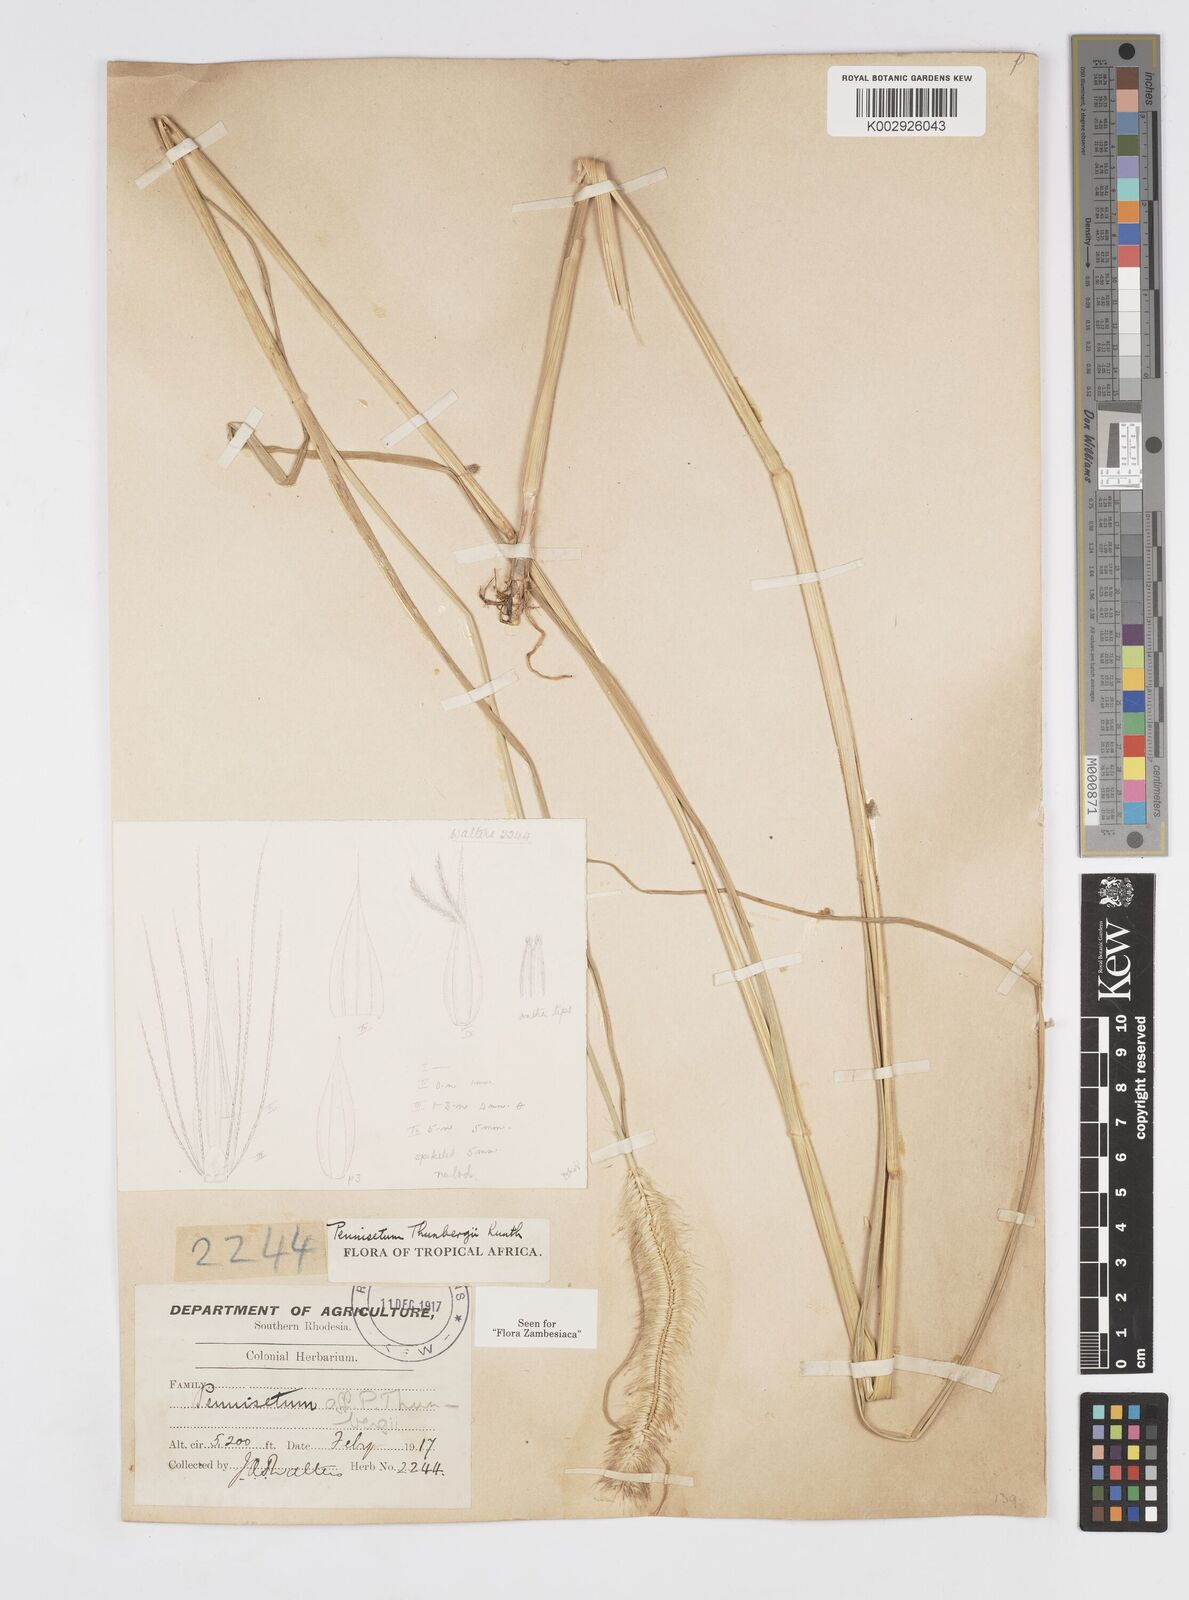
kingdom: Plantae
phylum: Tracheophyta
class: Liliopsida
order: Poales
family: Poaceae
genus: Cenchrus
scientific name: Cenchrus geniculatus
